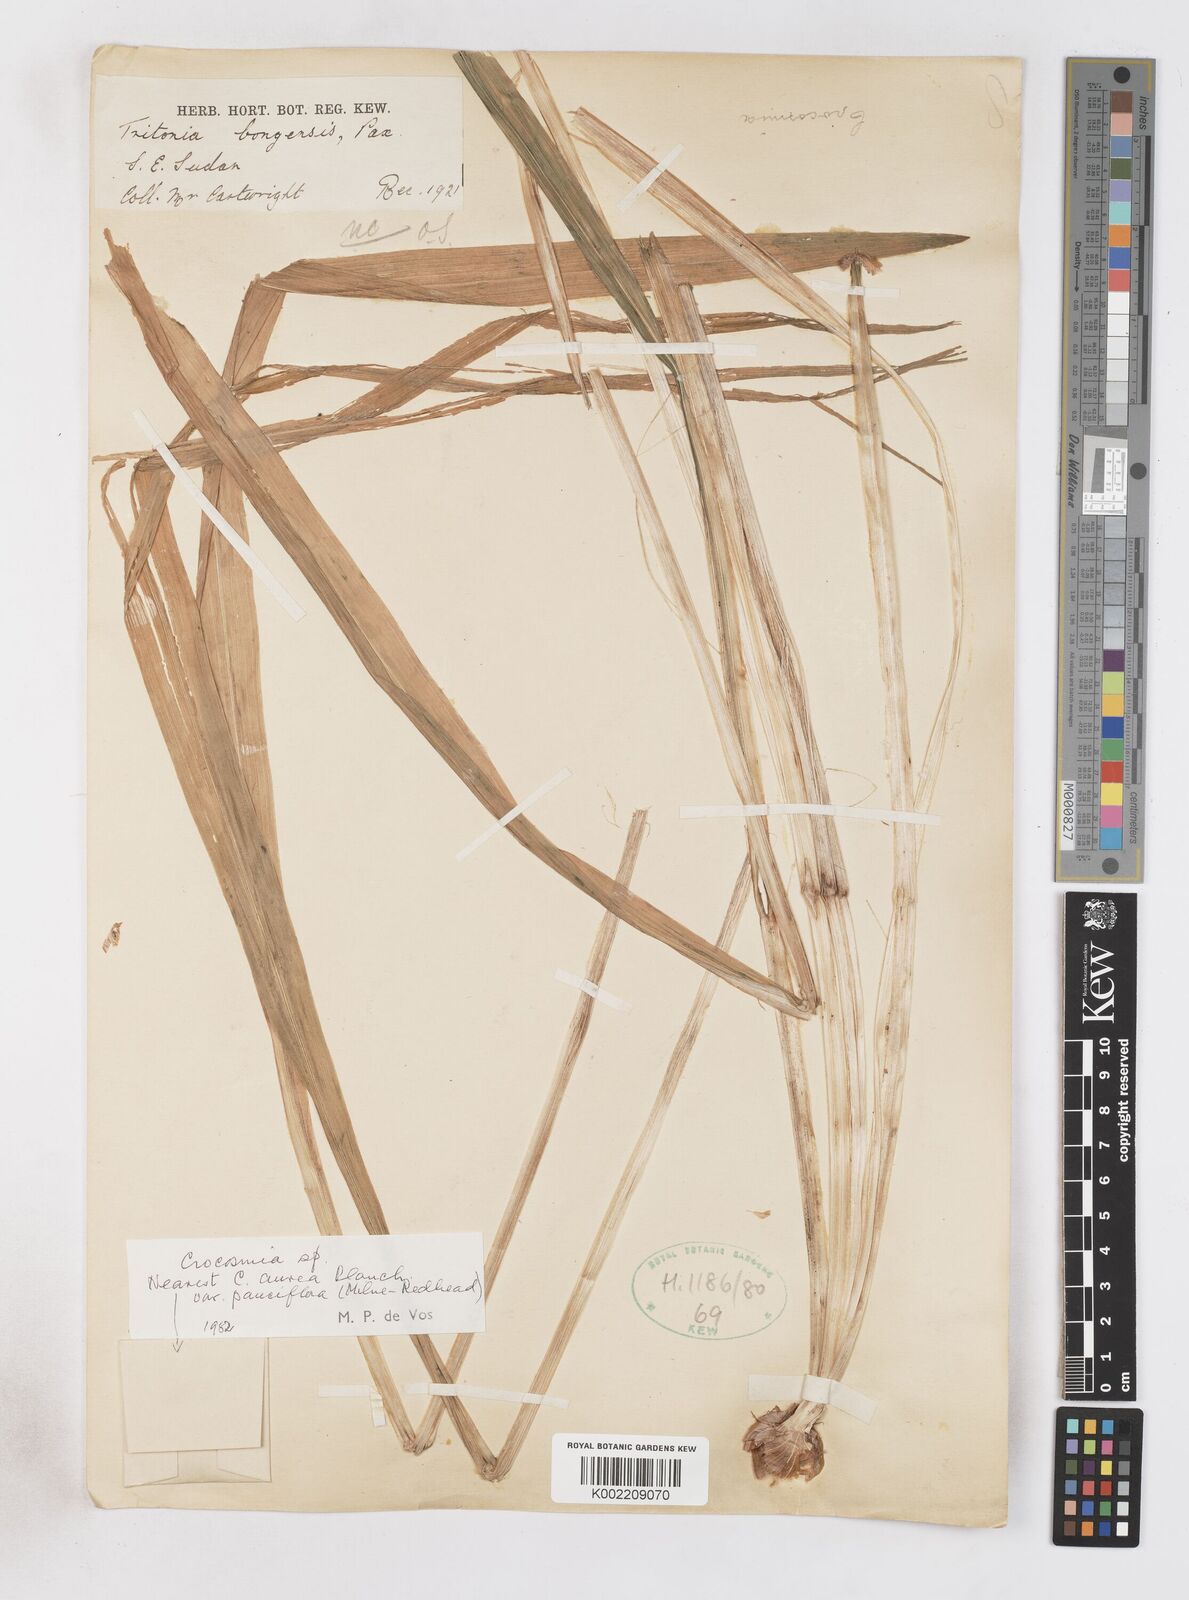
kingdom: Plantae
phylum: Tracheophyta
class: Liliopsida
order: Asparagales
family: Iridaceae
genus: Crocosmia
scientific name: Crocosmia aurea
